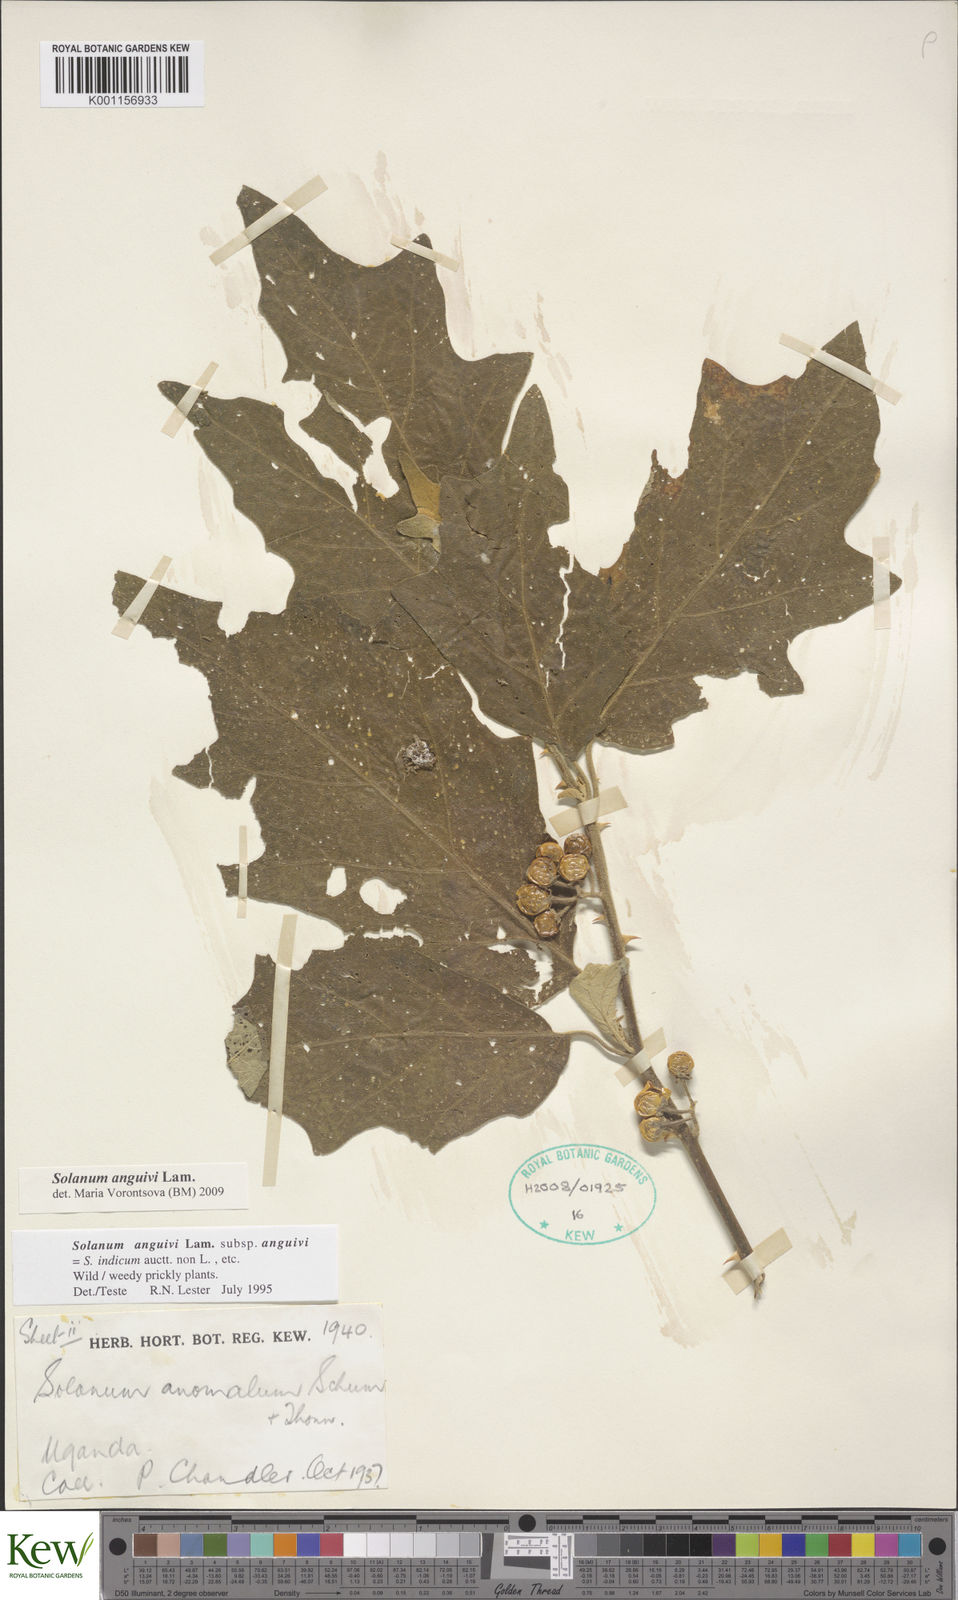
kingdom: Plantae
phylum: Tracheophyta
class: Magnoliopsida
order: Solanales
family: Solanaceae
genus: Solanum
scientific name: Solanum anguivi
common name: Forest bitterberry
